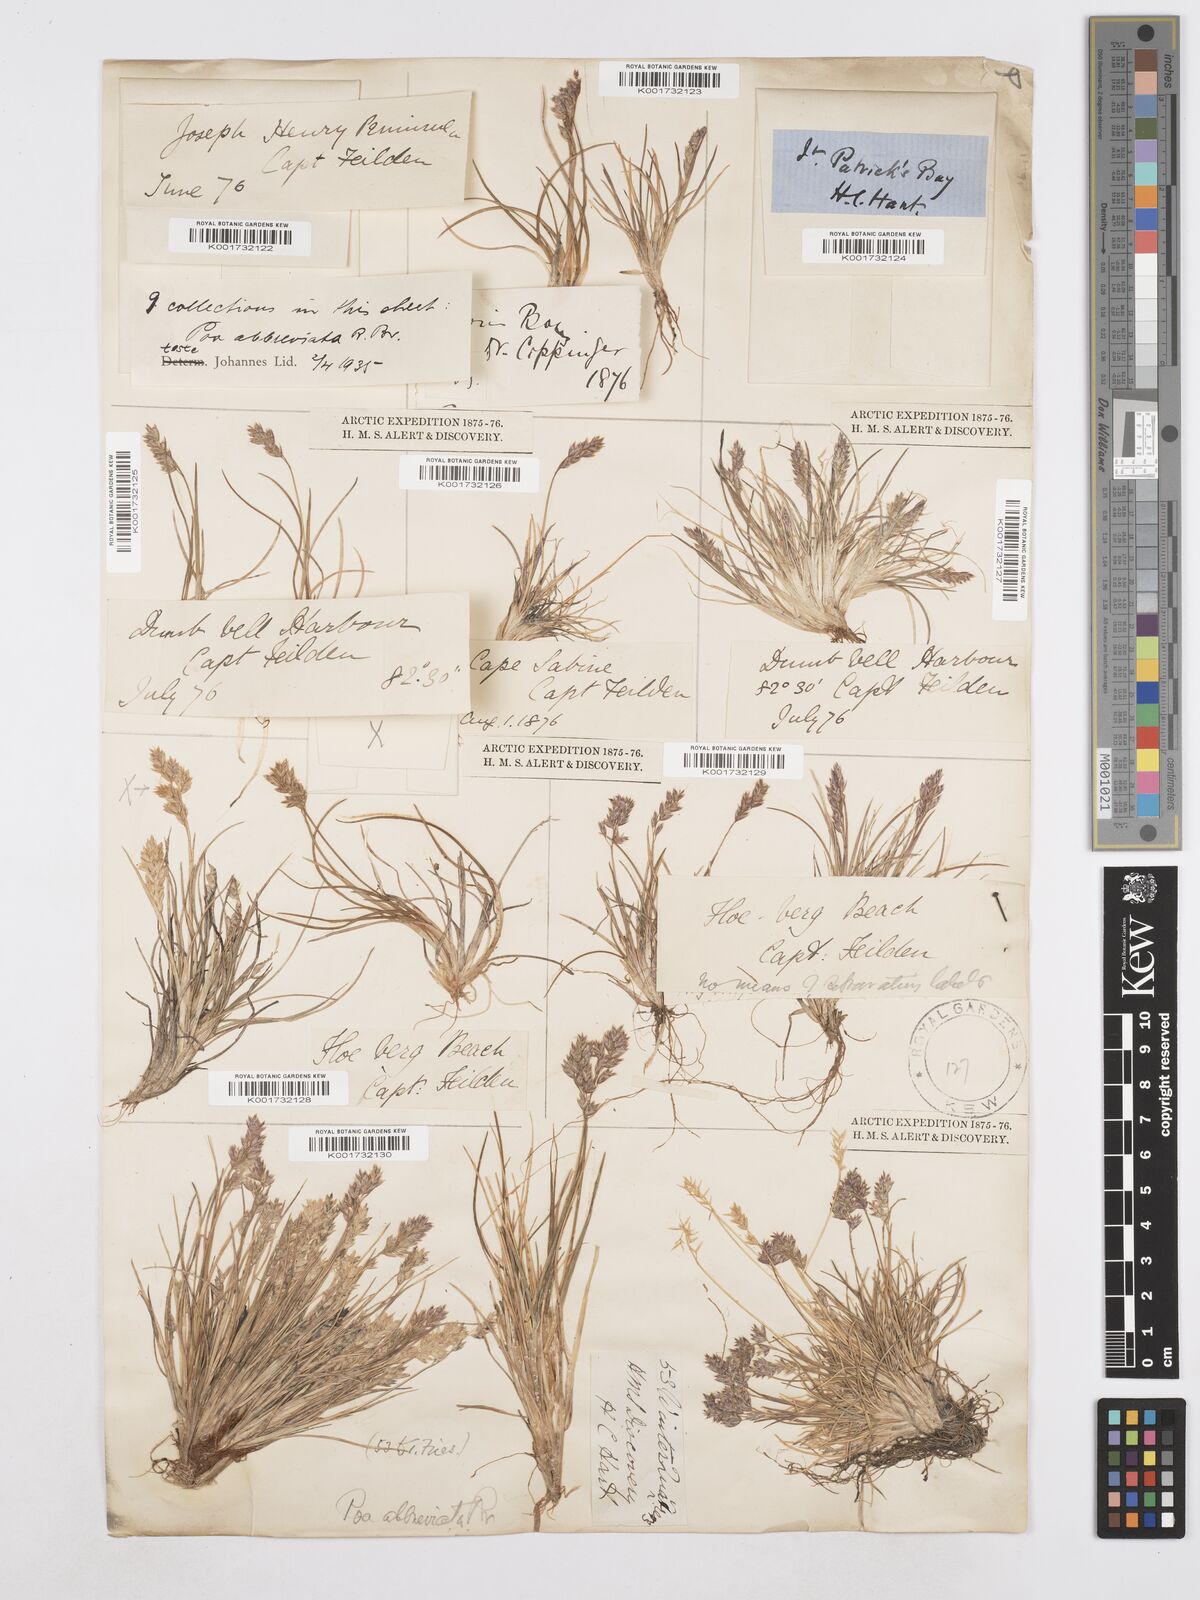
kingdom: Plantae
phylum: Tracheophyta
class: Liliopsida
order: Poales
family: Poaceae
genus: Poa
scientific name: Poa abbreviata
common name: Abbreviated bluegrass
